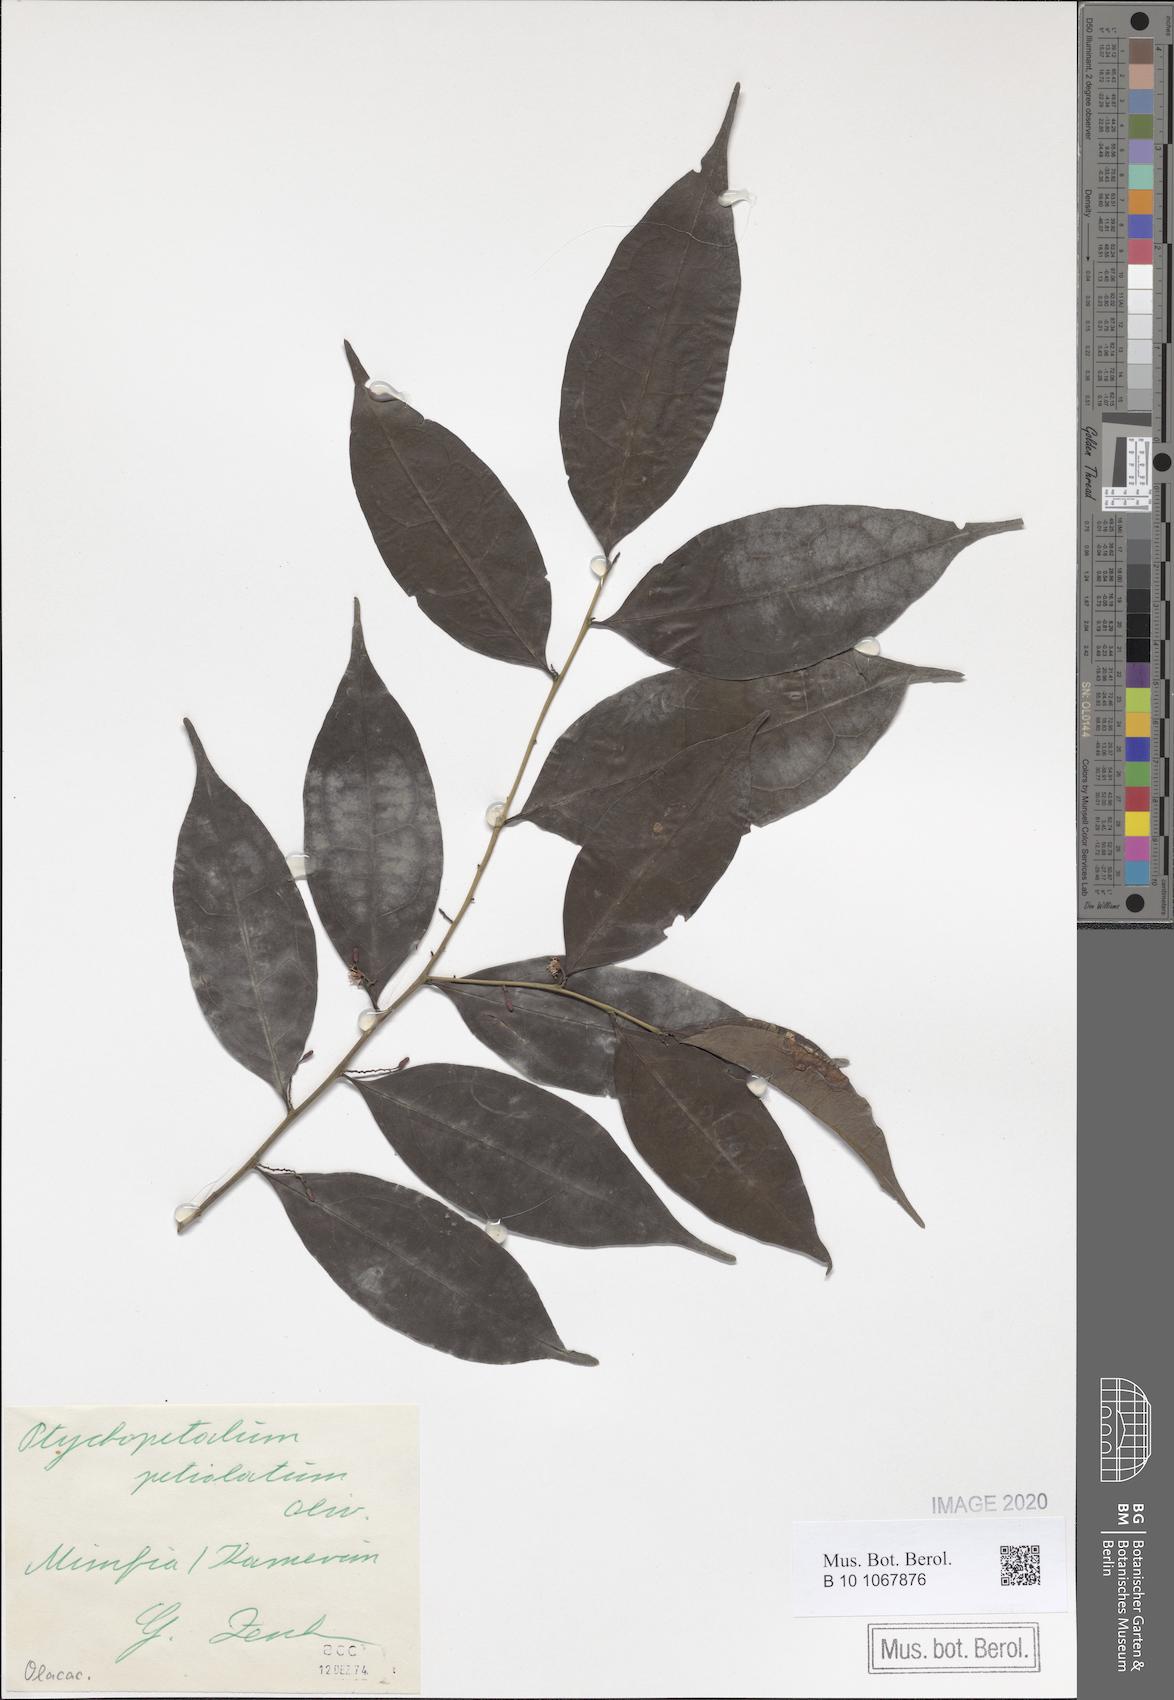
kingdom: Plantae
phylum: Tracheophyta
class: Magnoliopsida
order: Santalales
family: Olacaceae
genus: Ptychopetalum
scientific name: Ptychopetalum petiolatum
